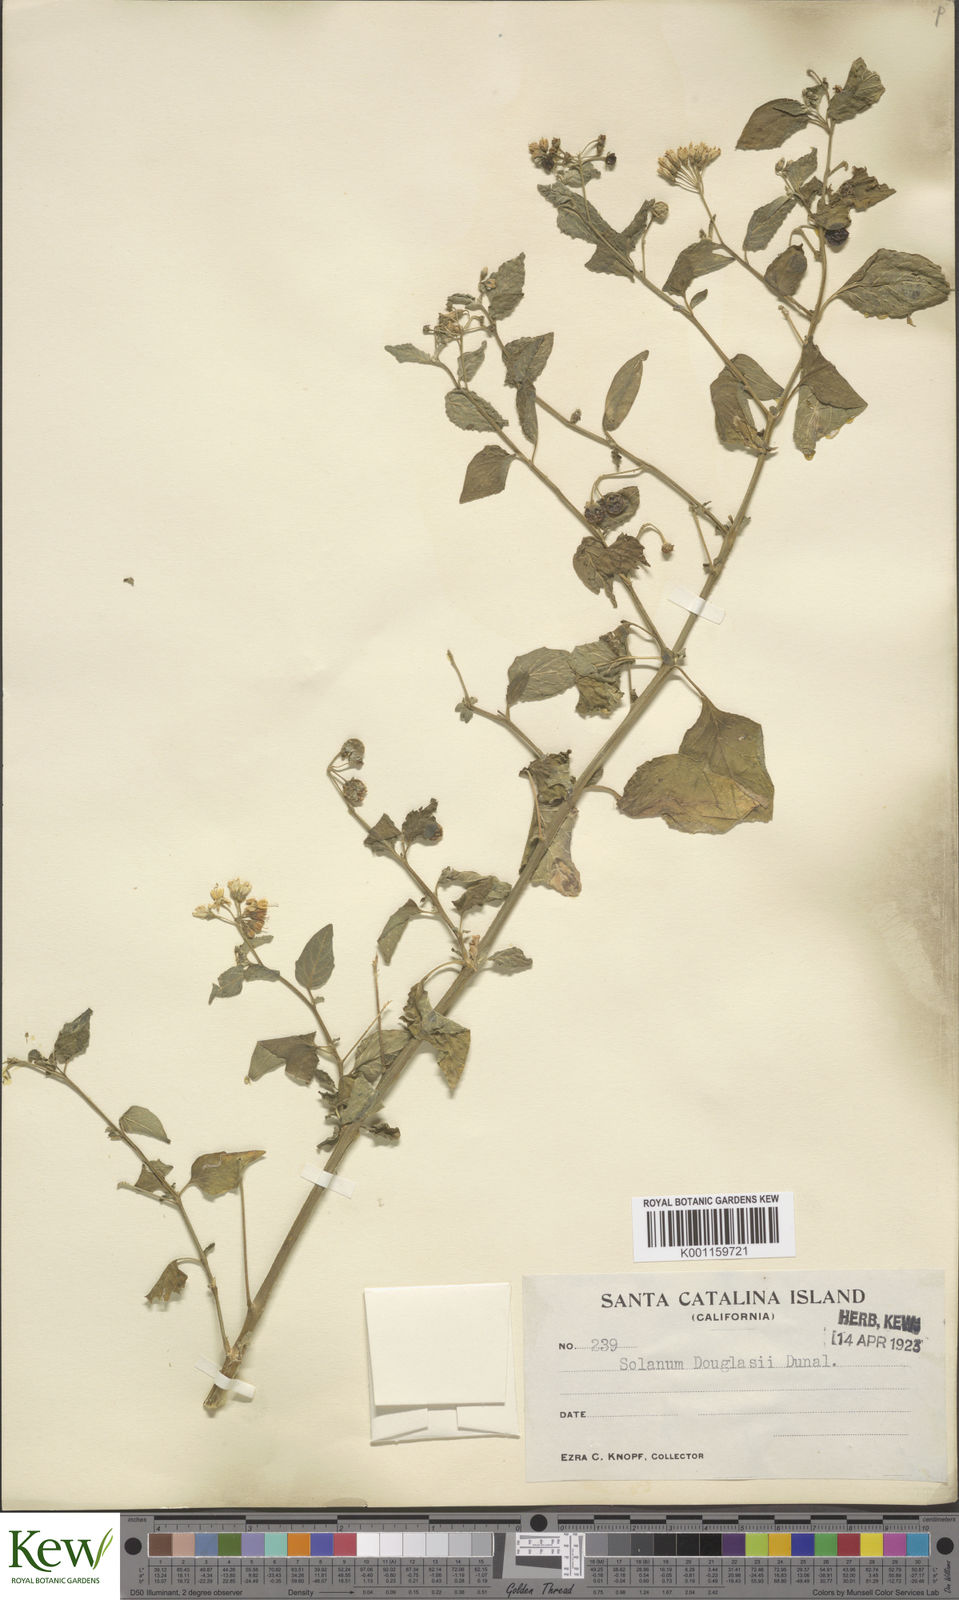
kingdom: Plantae
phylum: Tracheophyta
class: Magnoliopsida
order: Solanales
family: Solanaceae
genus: Solanum
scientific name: Solanum douglasii
